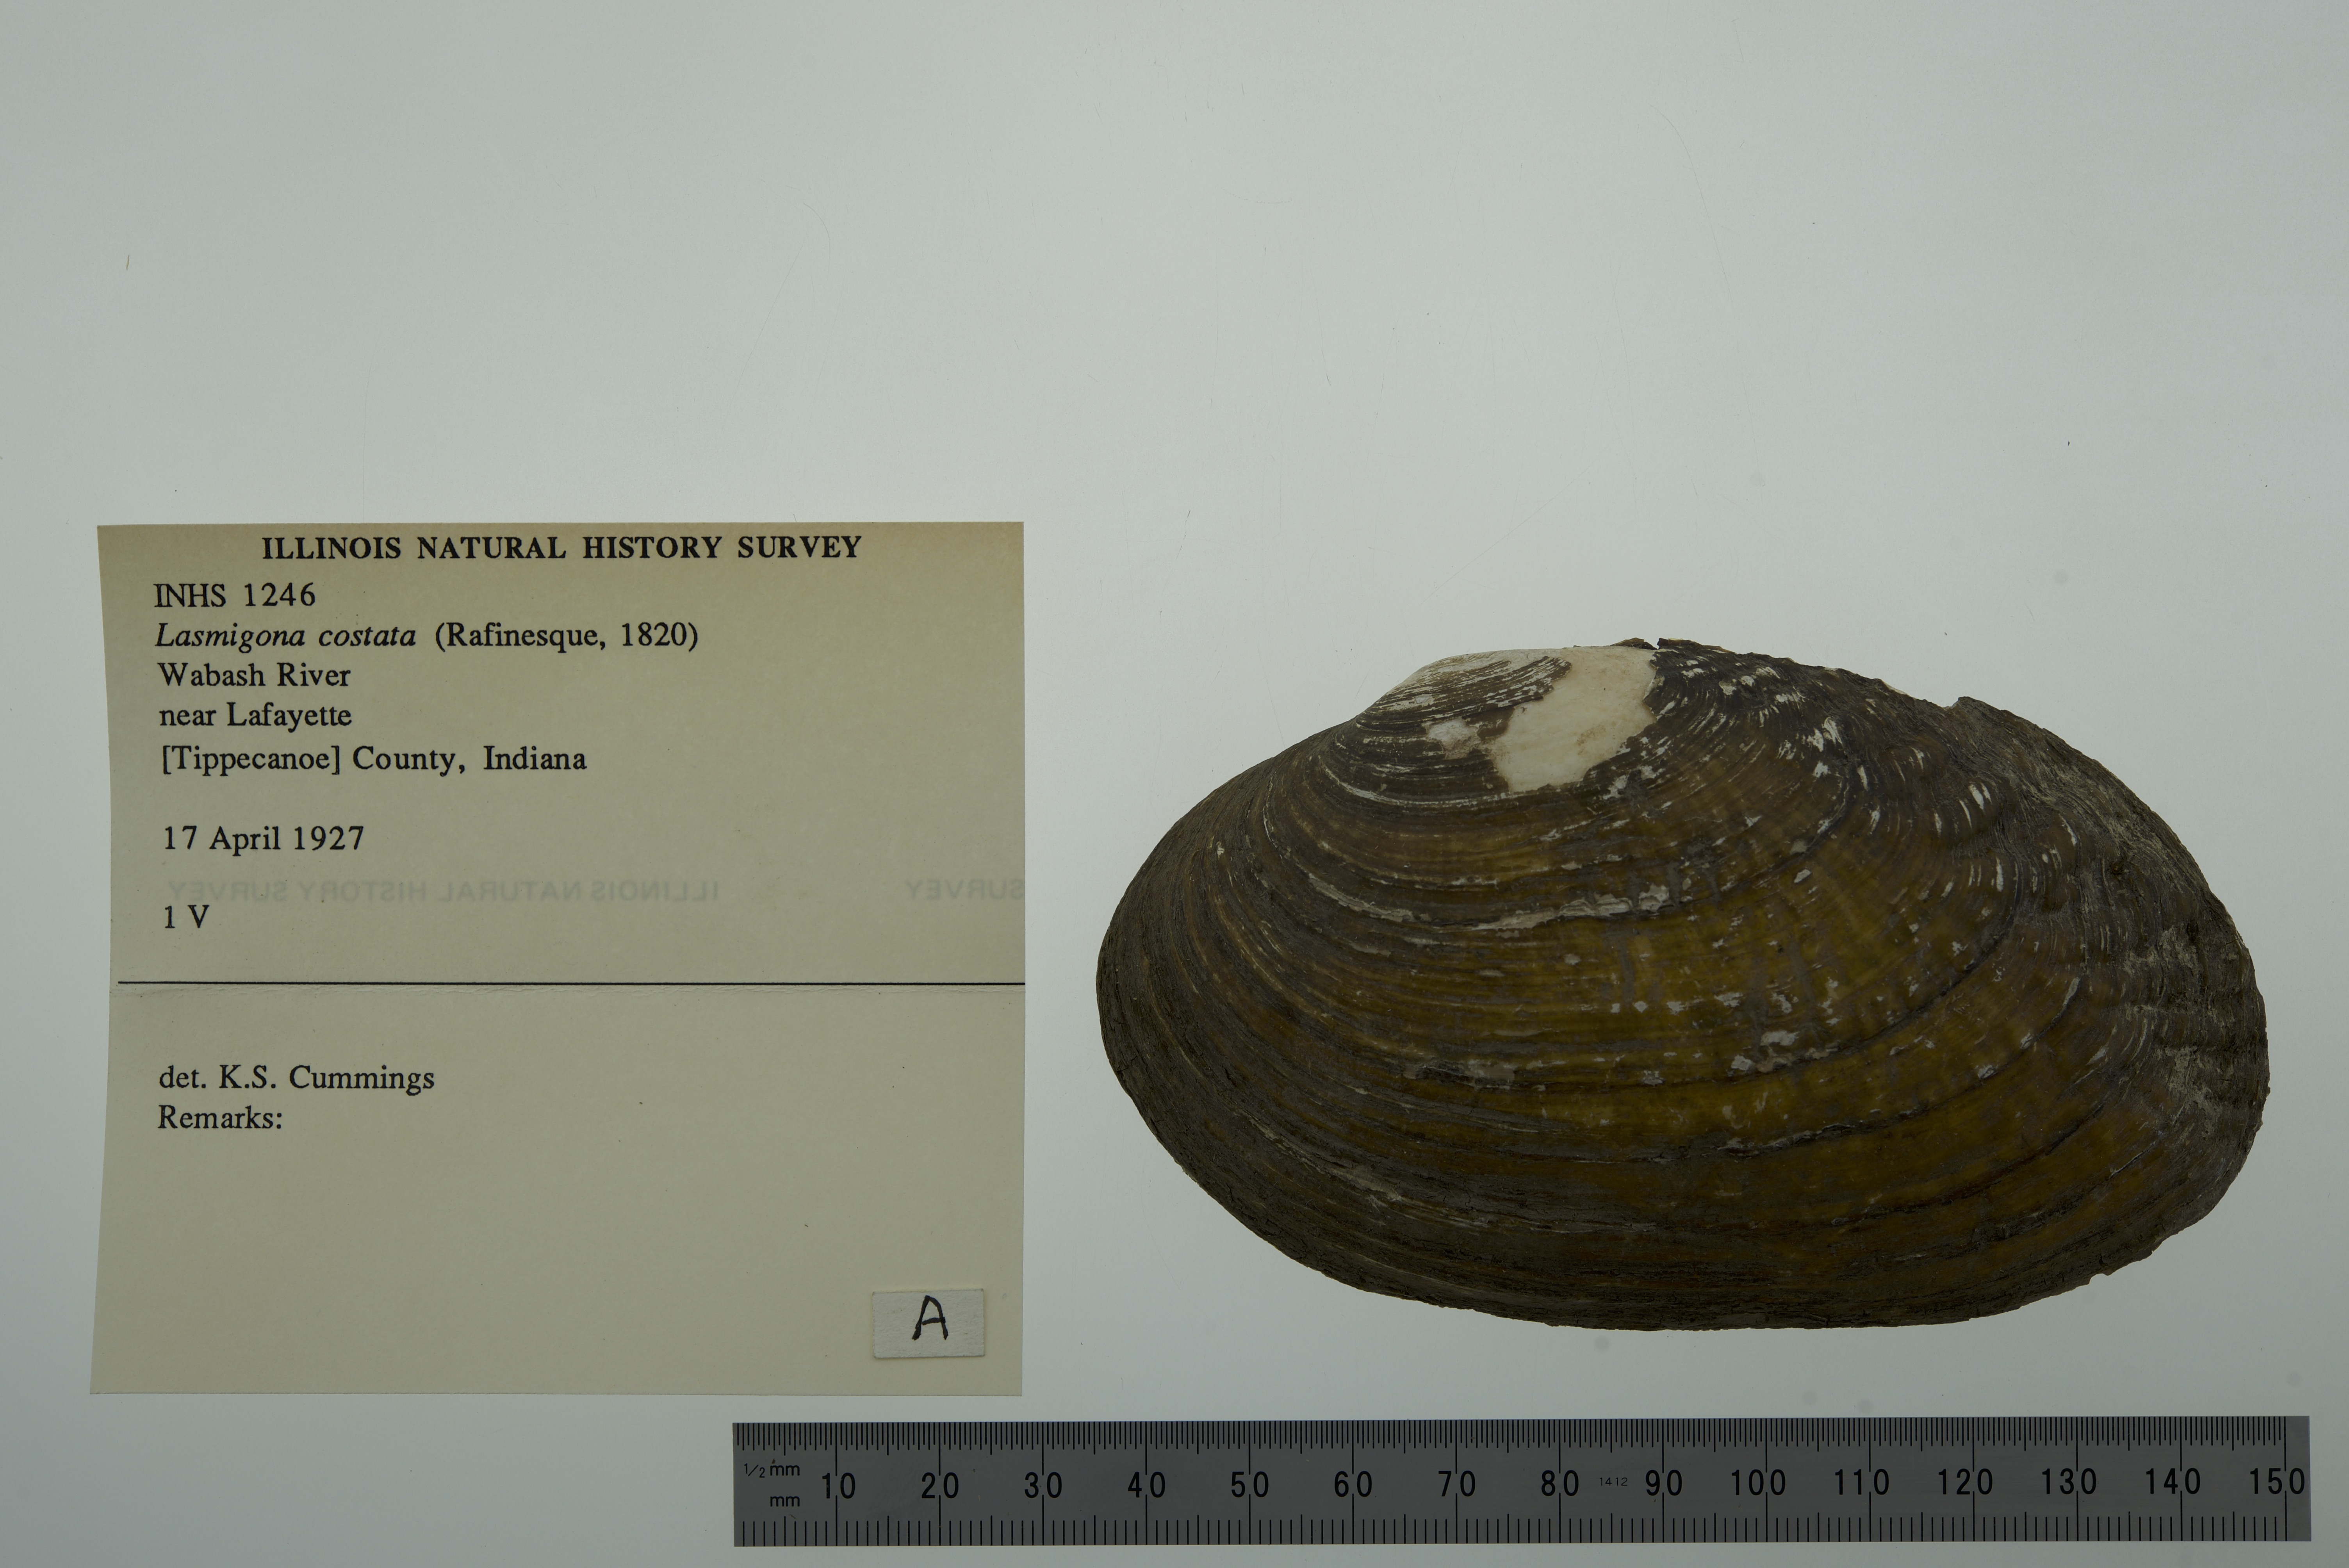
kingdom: Animalia
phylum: Mollusca
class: Bivalvia
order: Unionida
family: Unionidae
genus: Lasmigona
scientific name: Lasmigona costata
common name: Flutedshell
